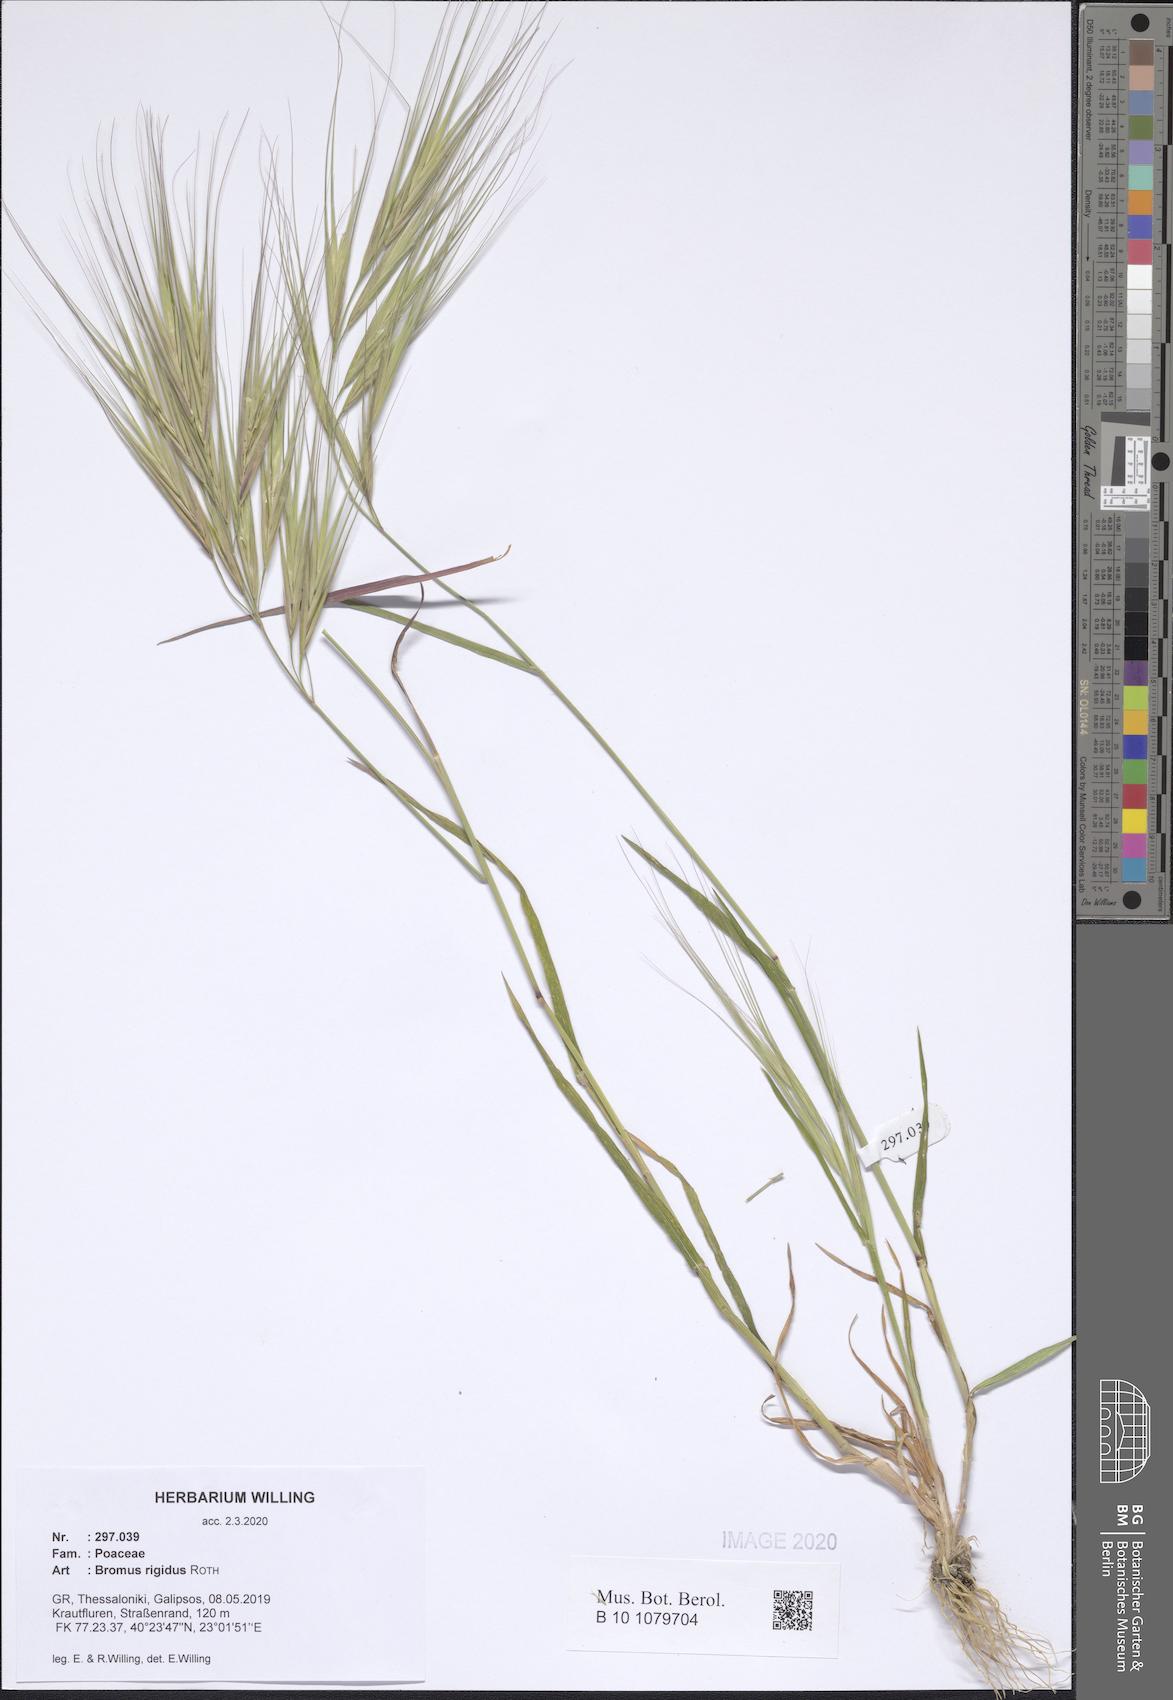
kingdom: Plantae
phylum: Tracheophyta
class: Liliopsida
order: Poales
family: Poaceae
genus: Bromus
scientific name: Bromus rigidus
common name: Ripgut brome
